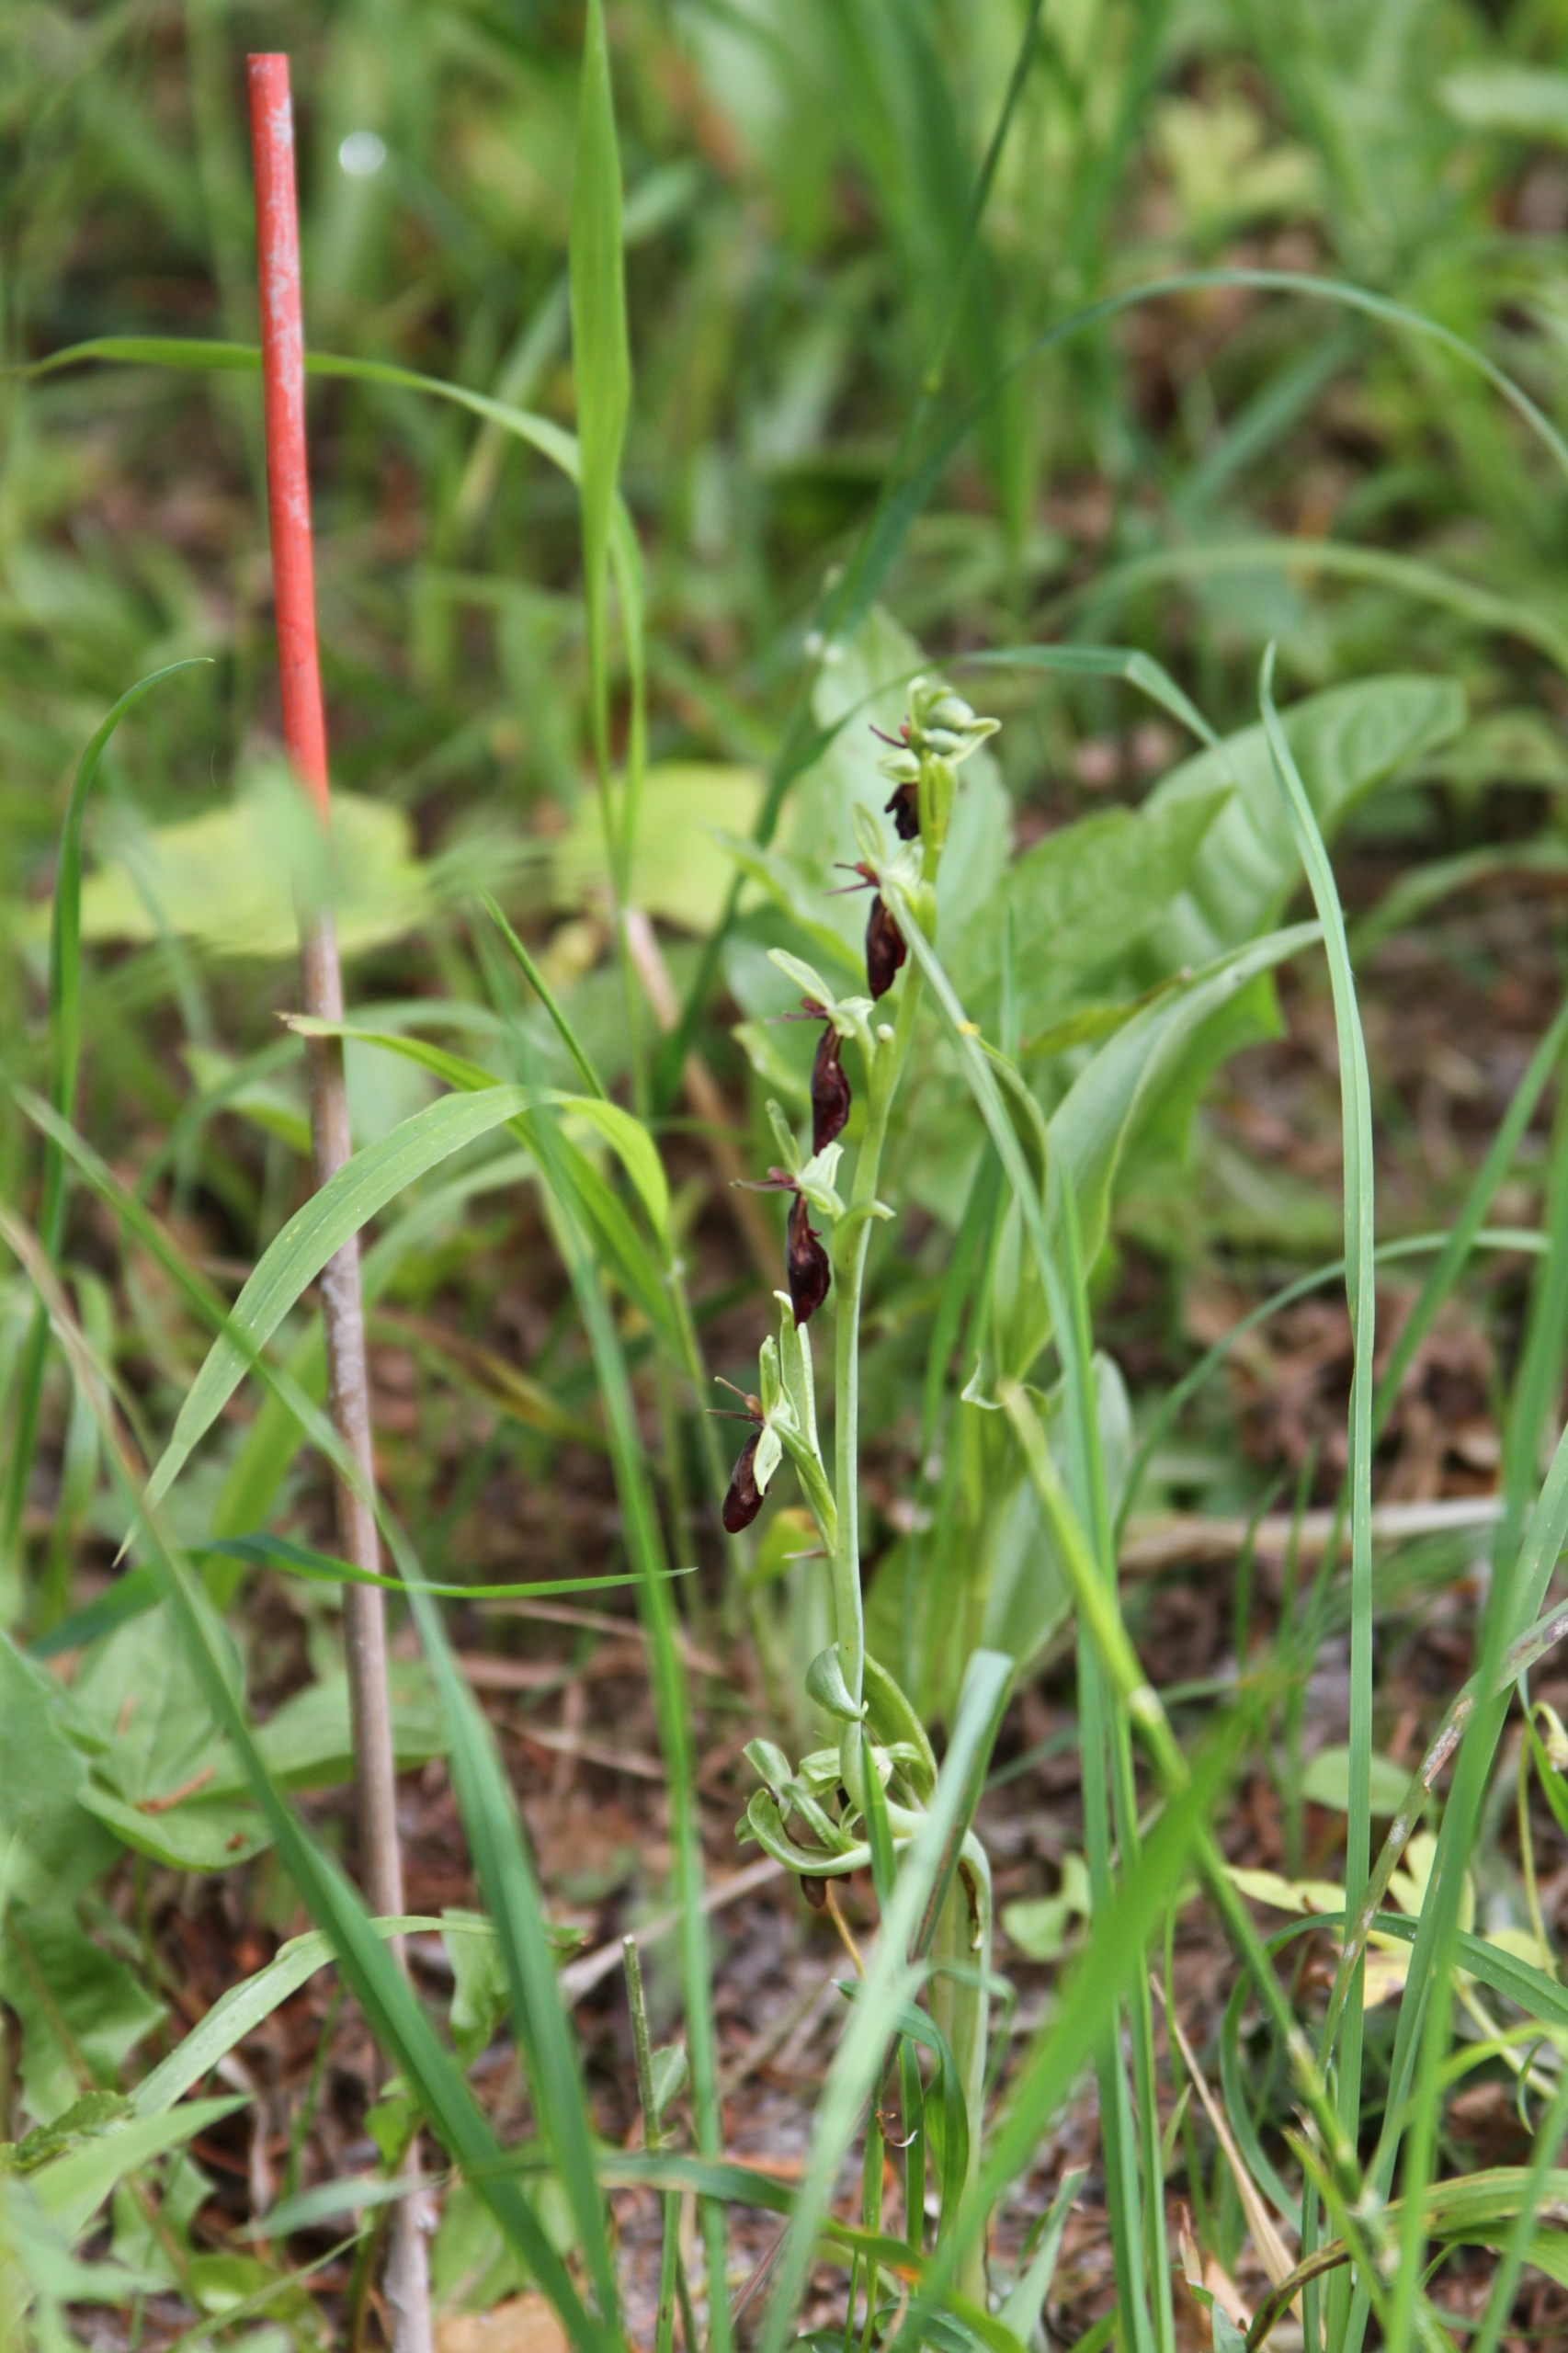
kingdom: Plantae
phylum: Tracheophyta
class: Liliopsida
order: Asparagales
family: Orchidaceae
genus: Ophrys
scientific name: Ophrys insectifera
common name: Flueblomst
